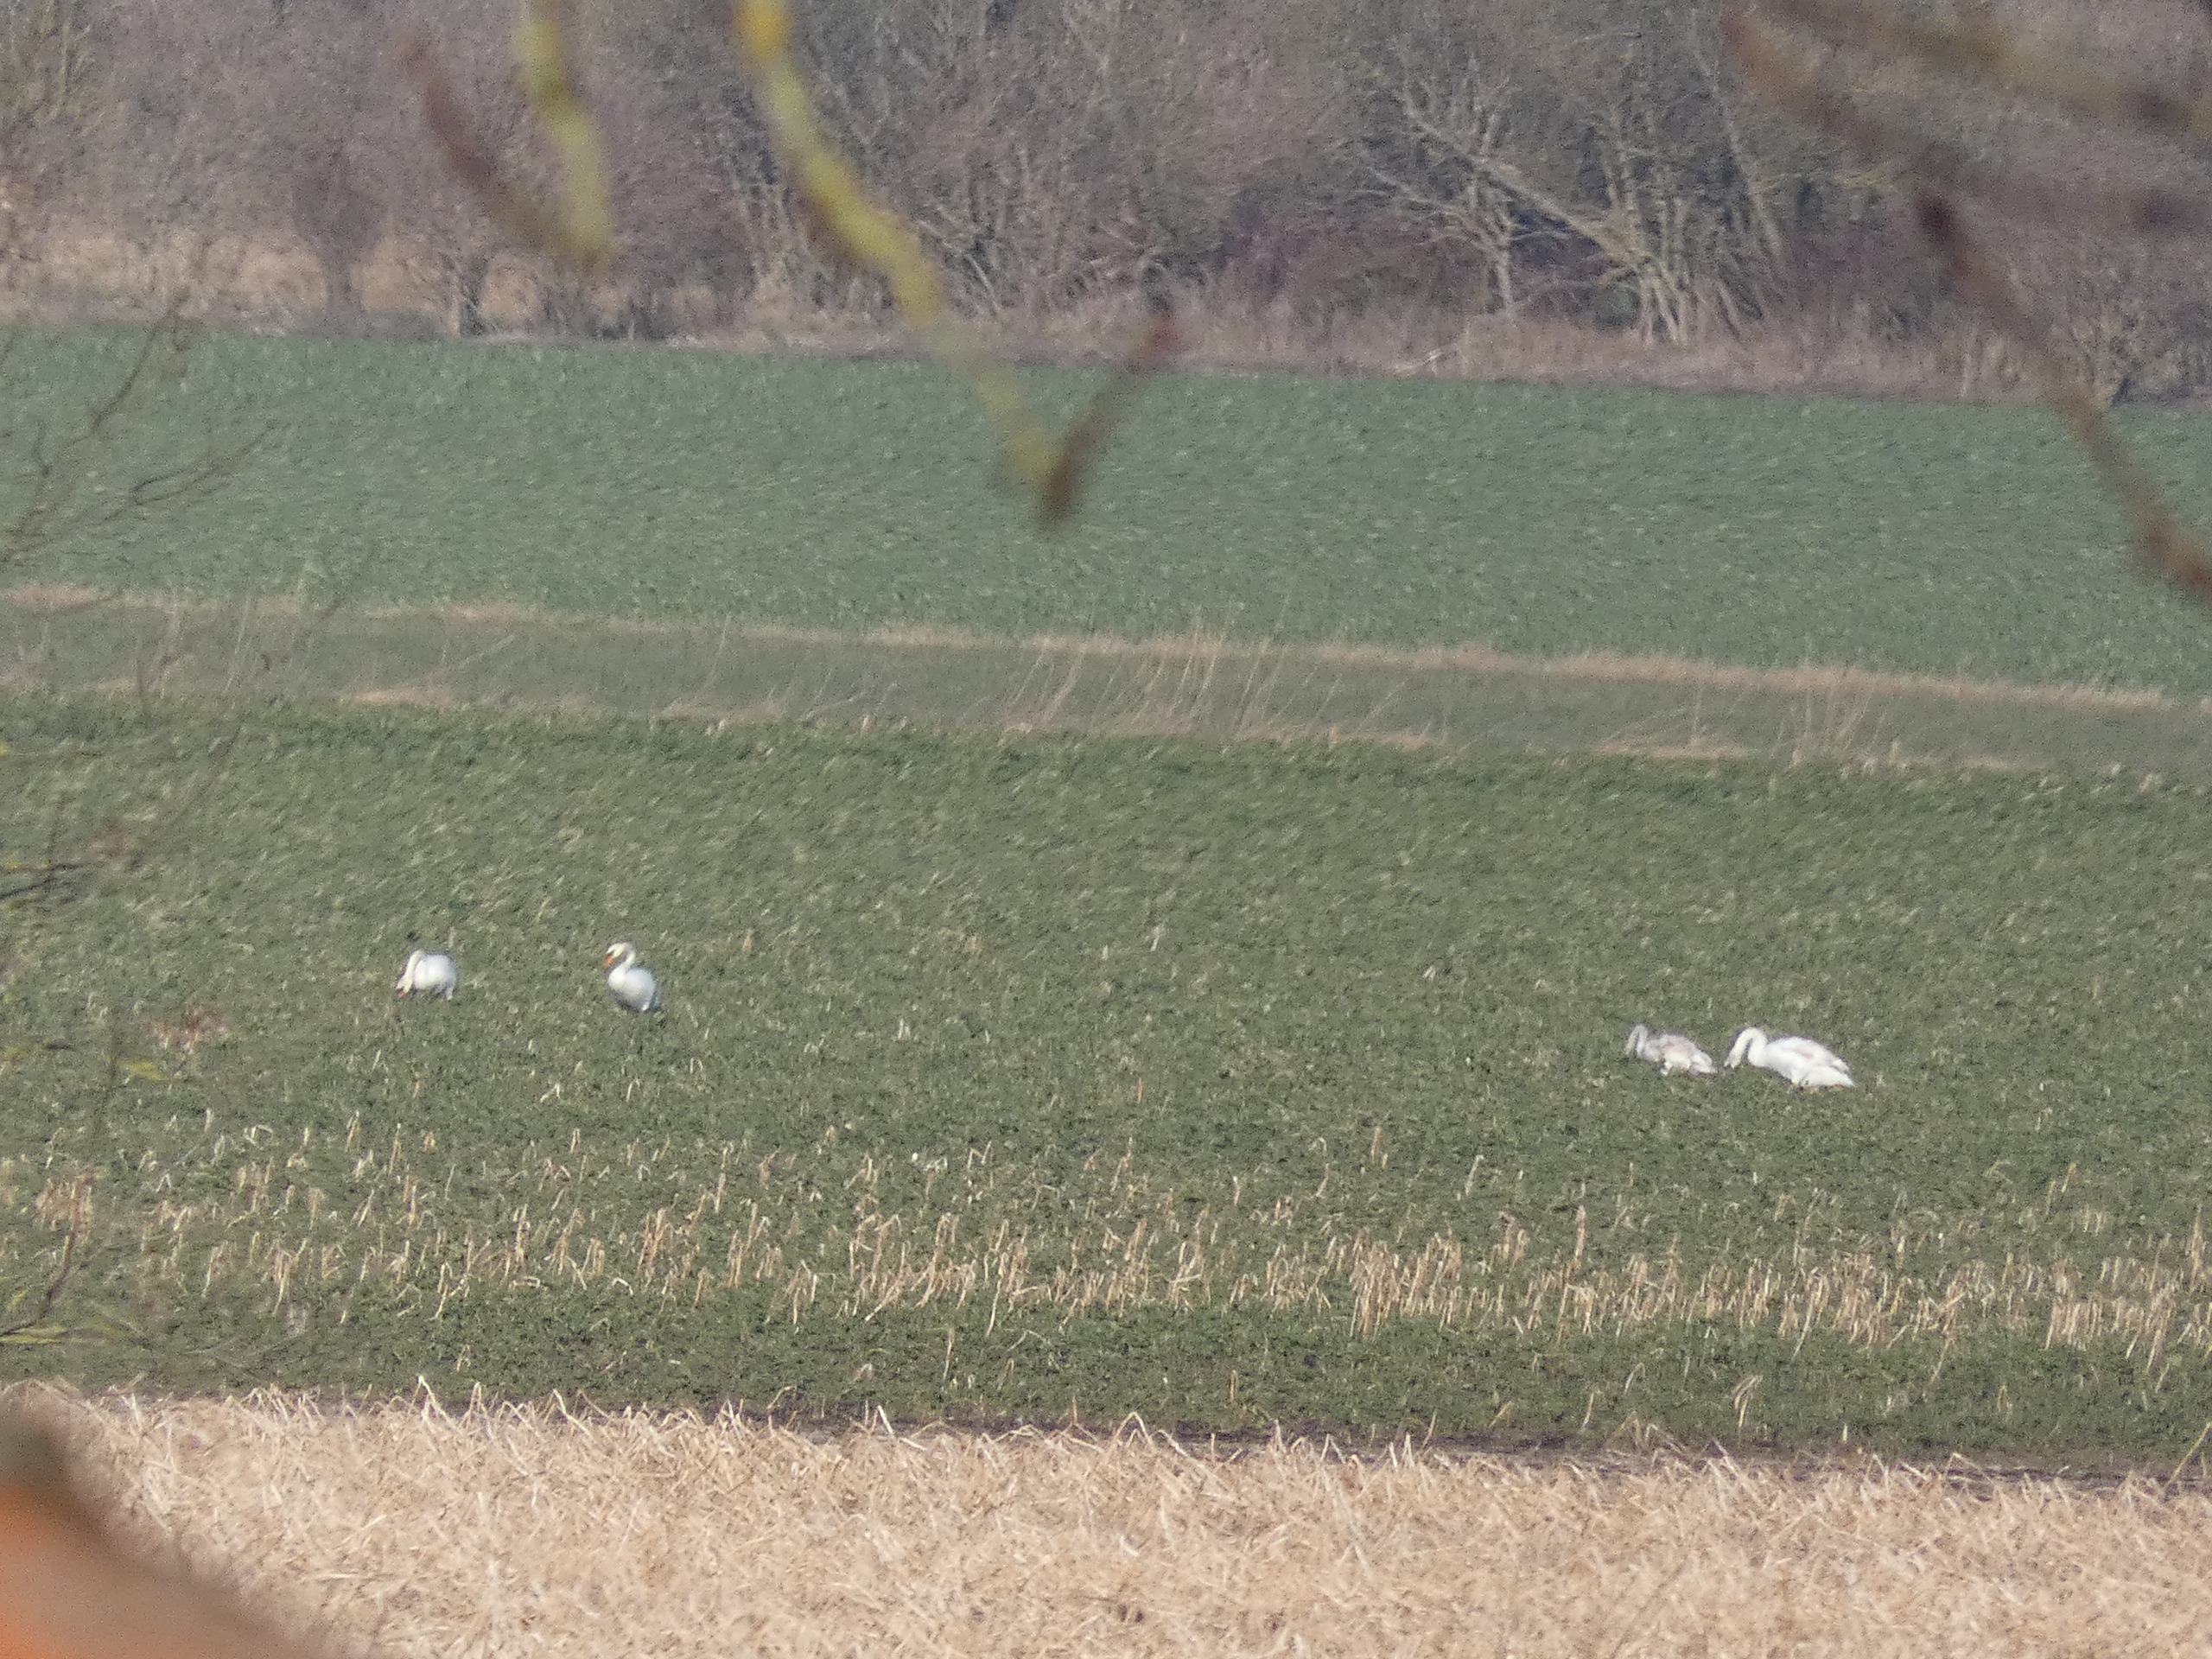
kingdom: Animalia
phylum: Chordata
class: Aves
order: Anseriformes
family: Anatidae
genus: Cygnus
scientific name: Cygnus olor
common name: Knopsvane
